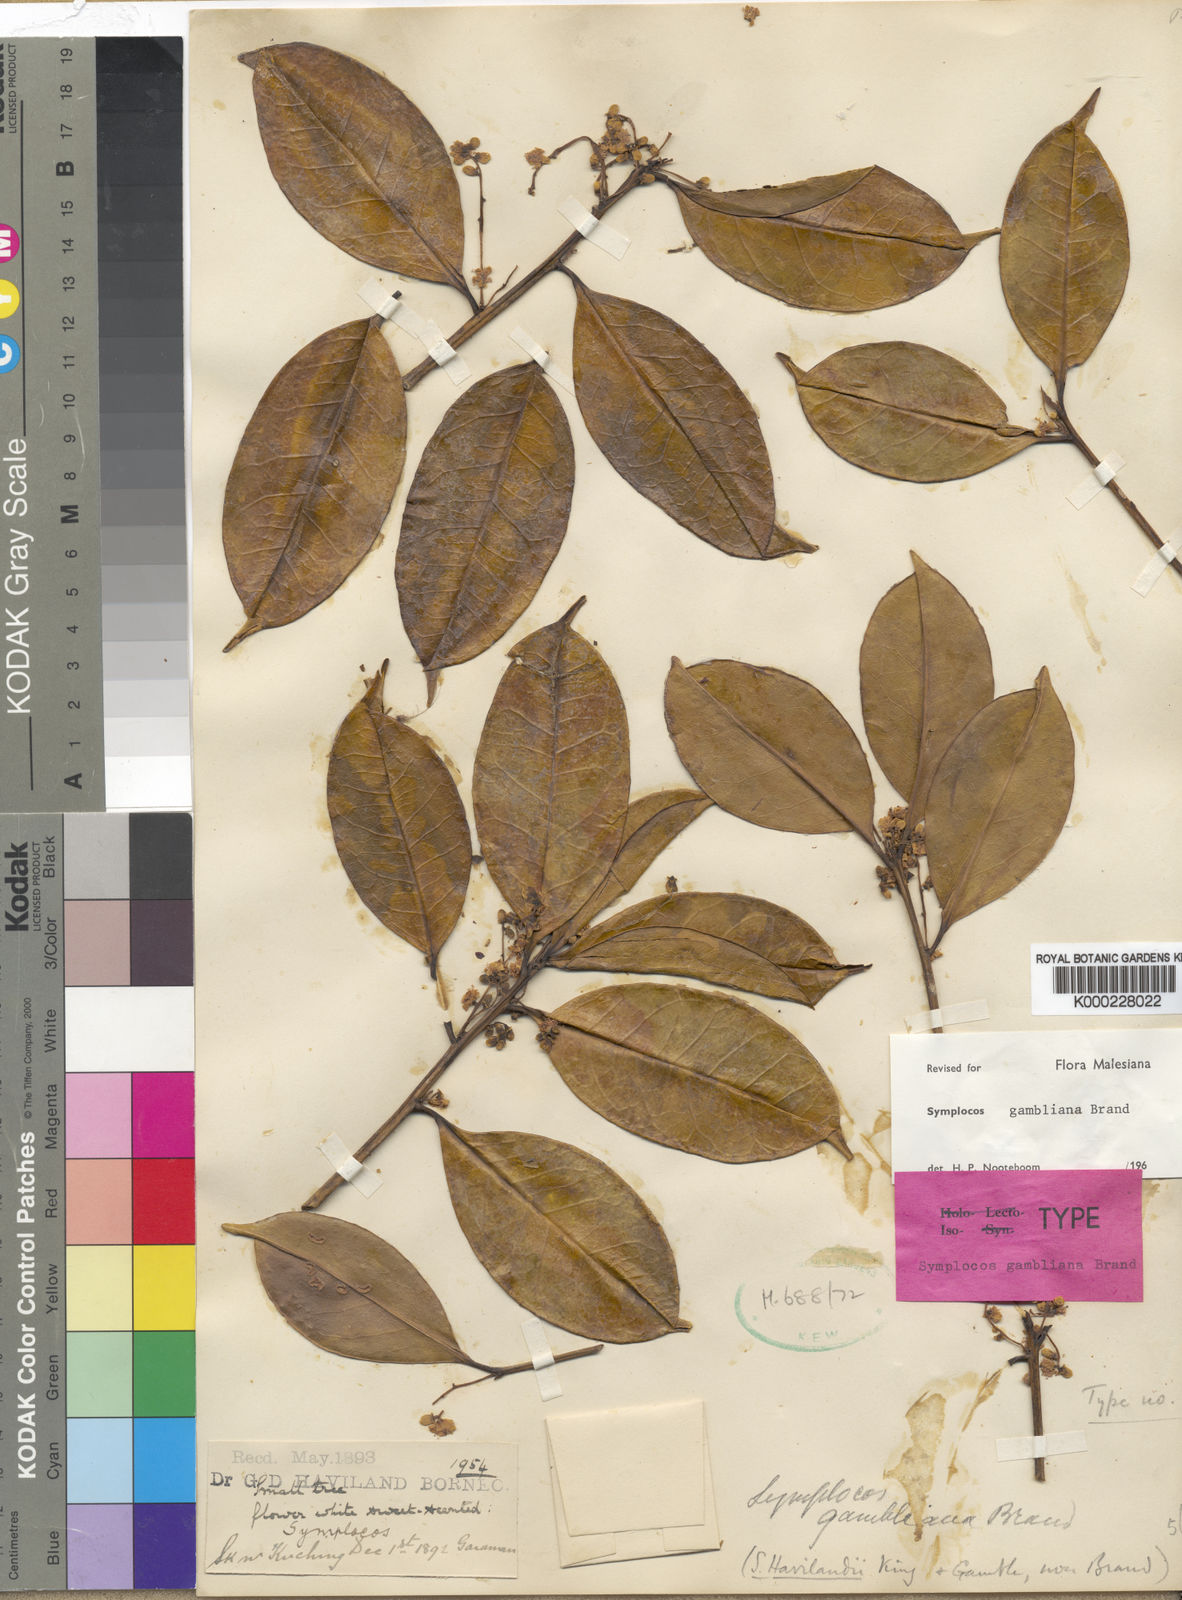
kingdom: Plantae
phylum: Tracheophyta
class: Magnoliopsida
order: Ericales
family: Symplocaceae
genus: Symplocos
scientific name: Symplocos gambliana
